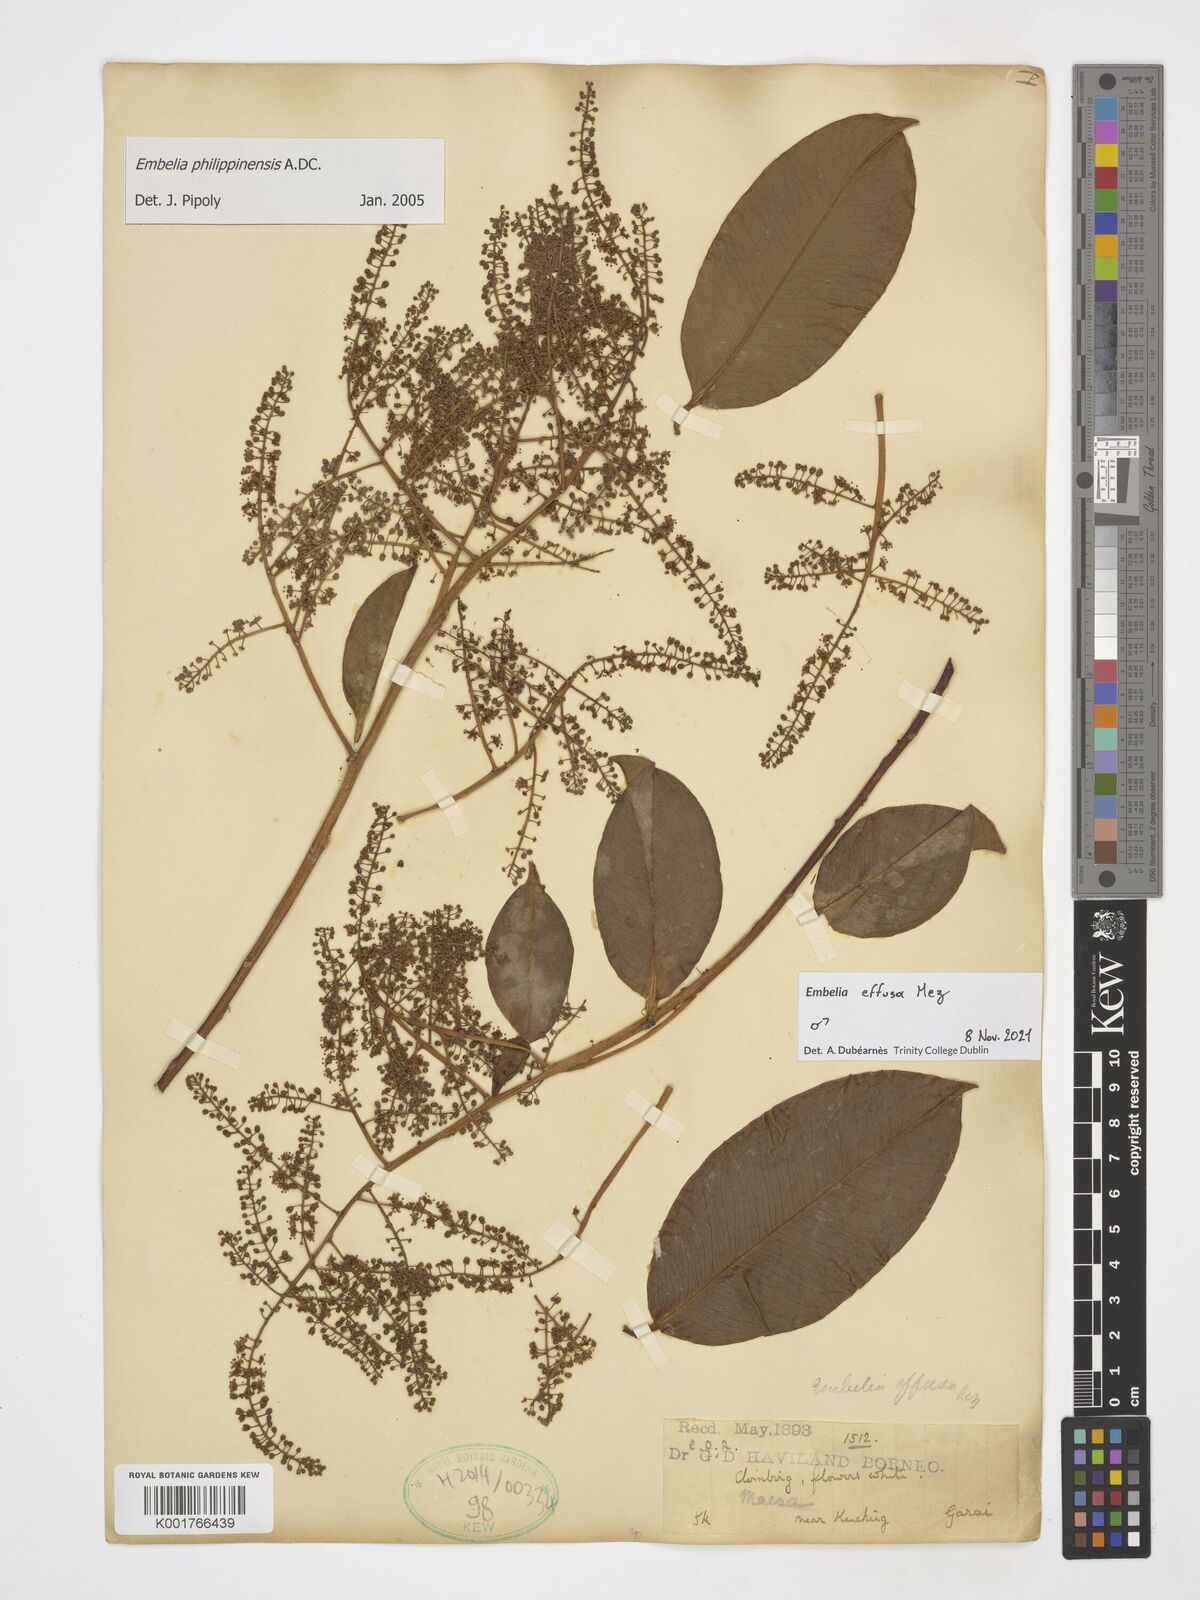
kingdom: Plantae
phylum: Tracheophyta
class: Magnoliopsida
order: Ericales
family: Primulaceae
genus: Embelia
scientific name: Embelia effusa
